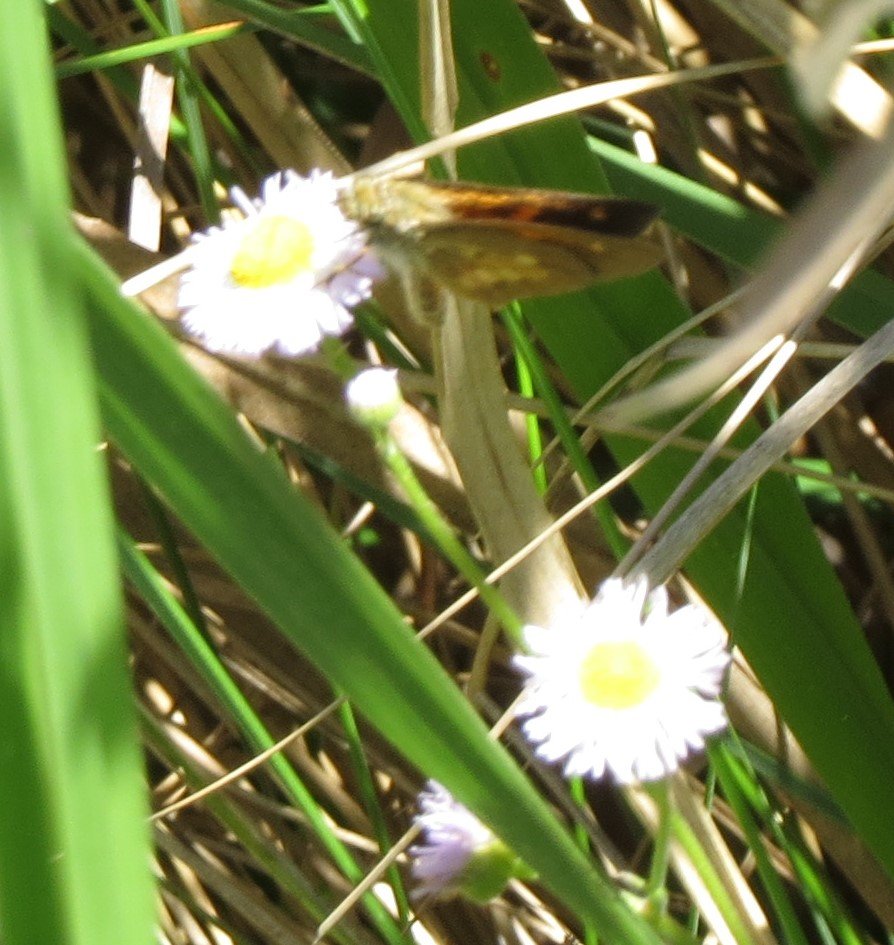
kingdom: Animalia
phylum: Arthropoda
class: Insecta
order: Lepidoptera
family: Hesperiidae
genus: Poanes
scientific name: Poanes viator
